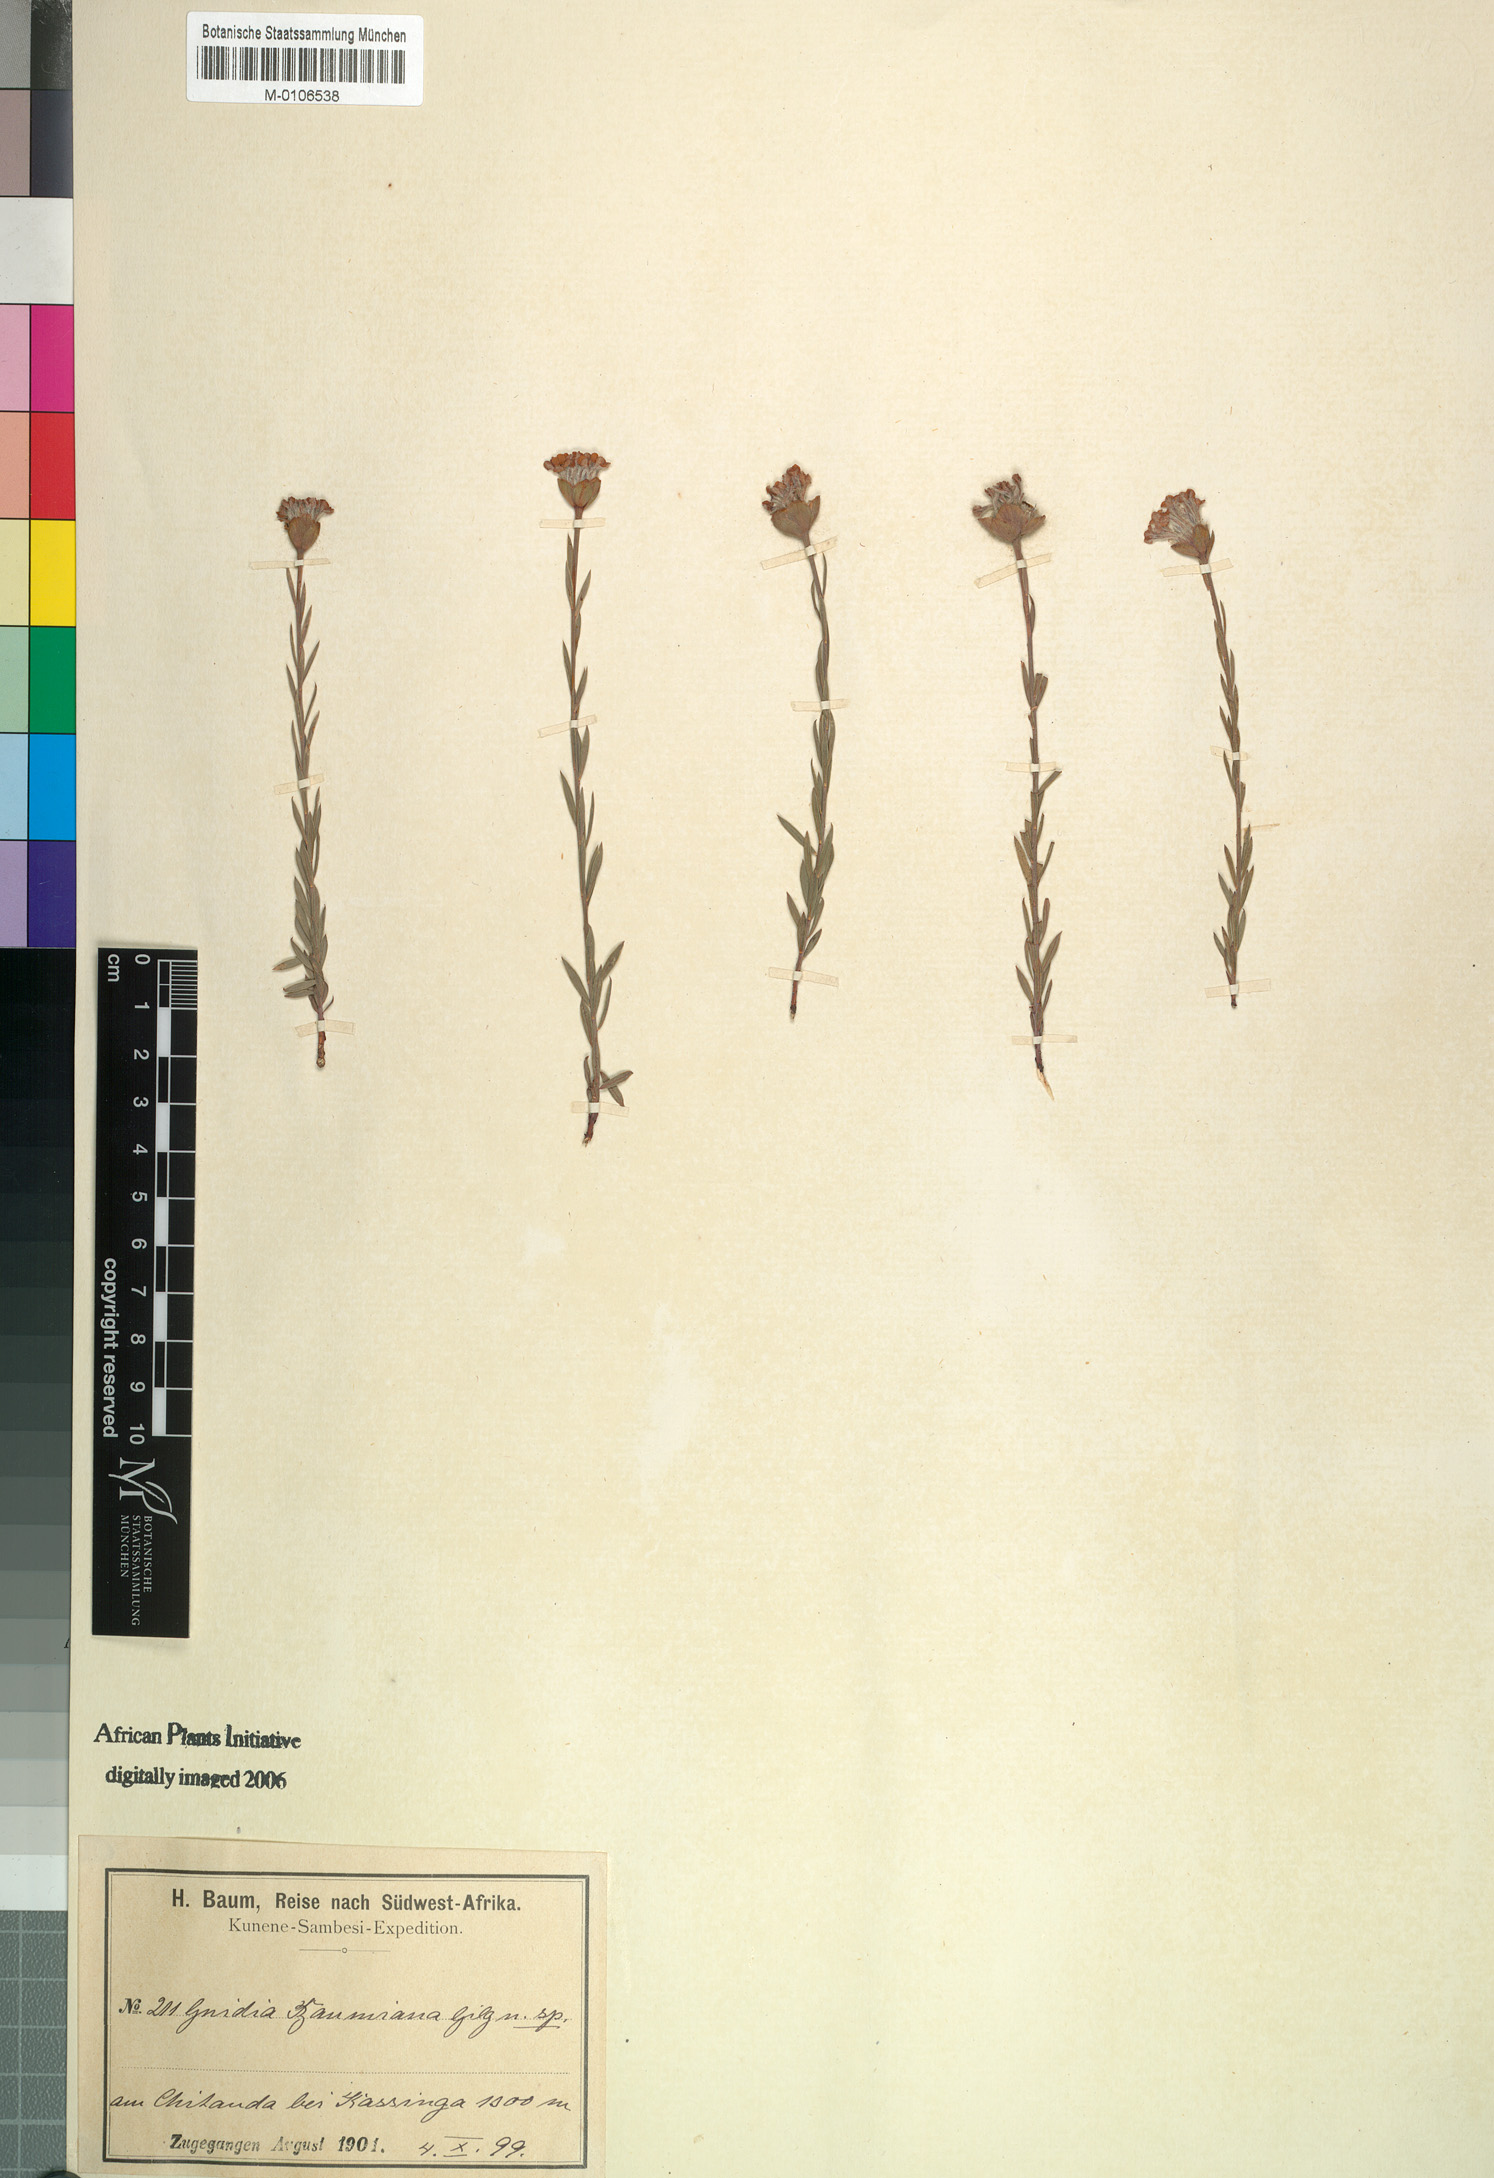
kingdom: Plantae
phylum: Tracheophyta
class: Magnoliopsida
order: Malvales
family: Thymelaeaceae
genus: Gnidia
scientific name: Gnidia baumiana
